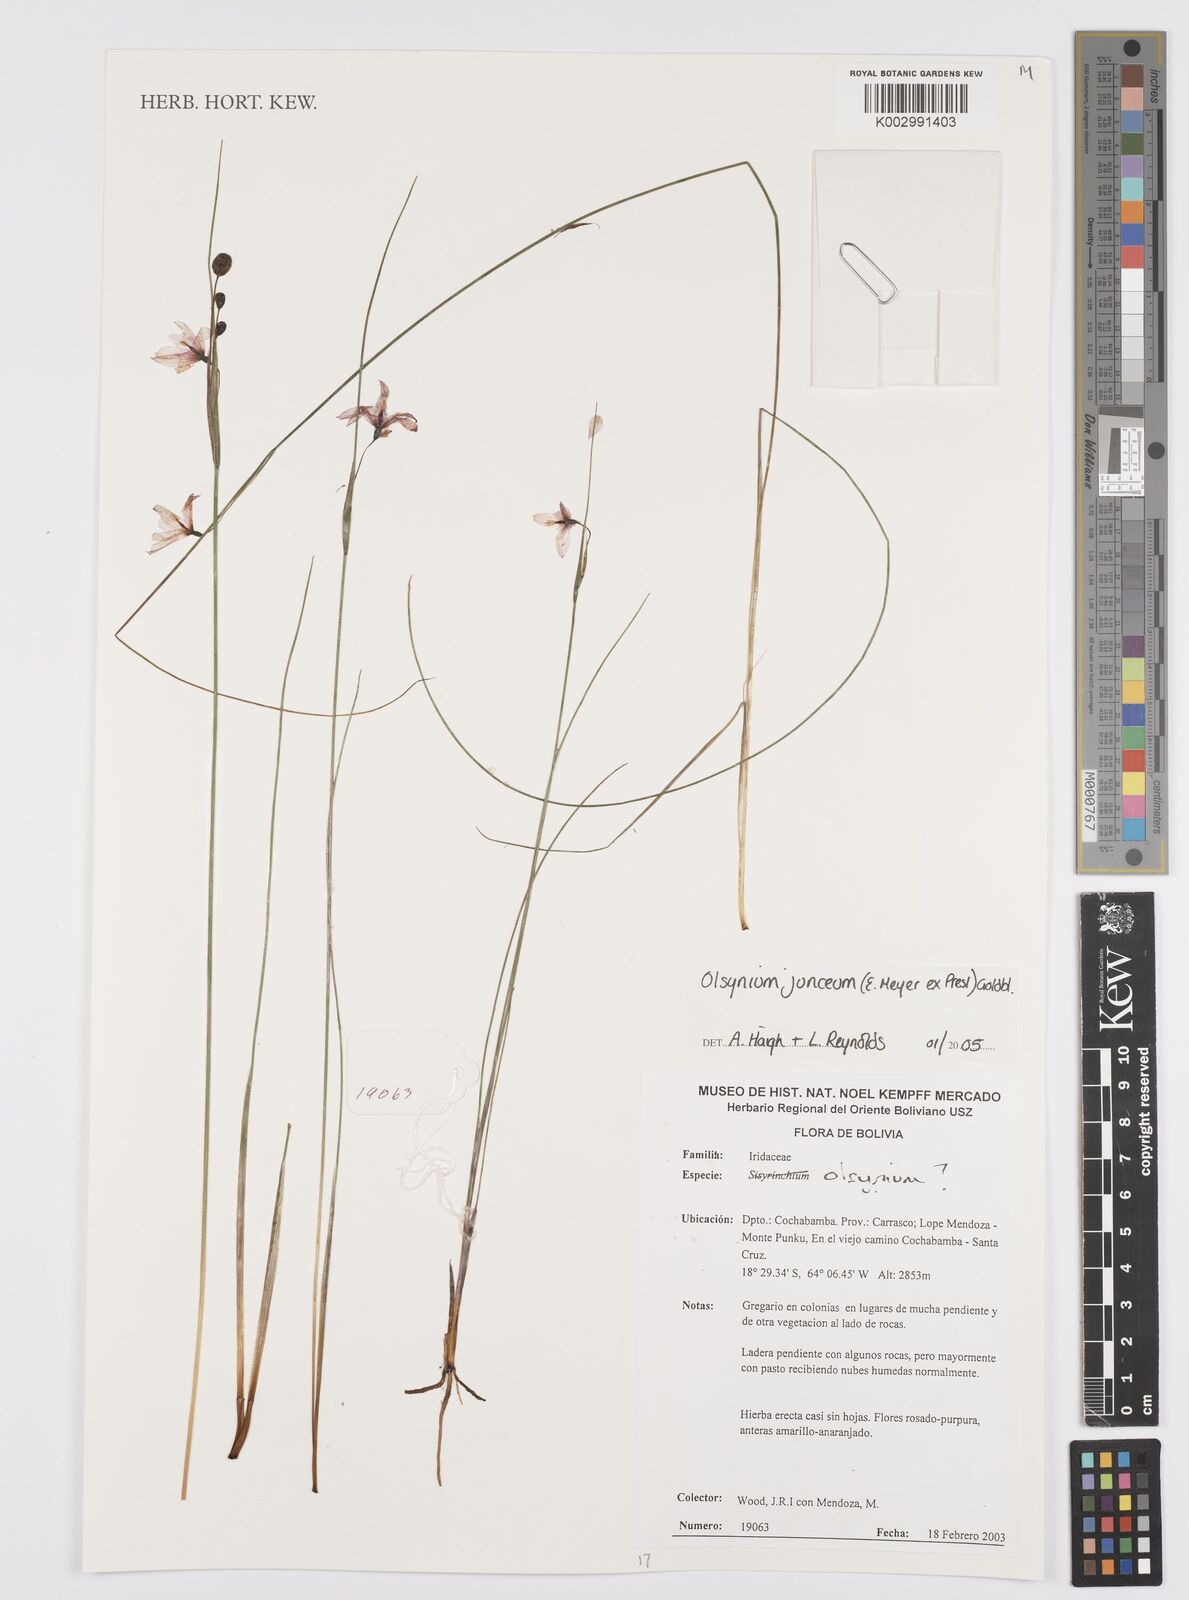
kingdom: Plantae
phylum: Tracheophyta
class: Liliopsida
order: Asparagales
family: Iridaceae
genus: Olsynium
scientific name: Olsynium junceum
